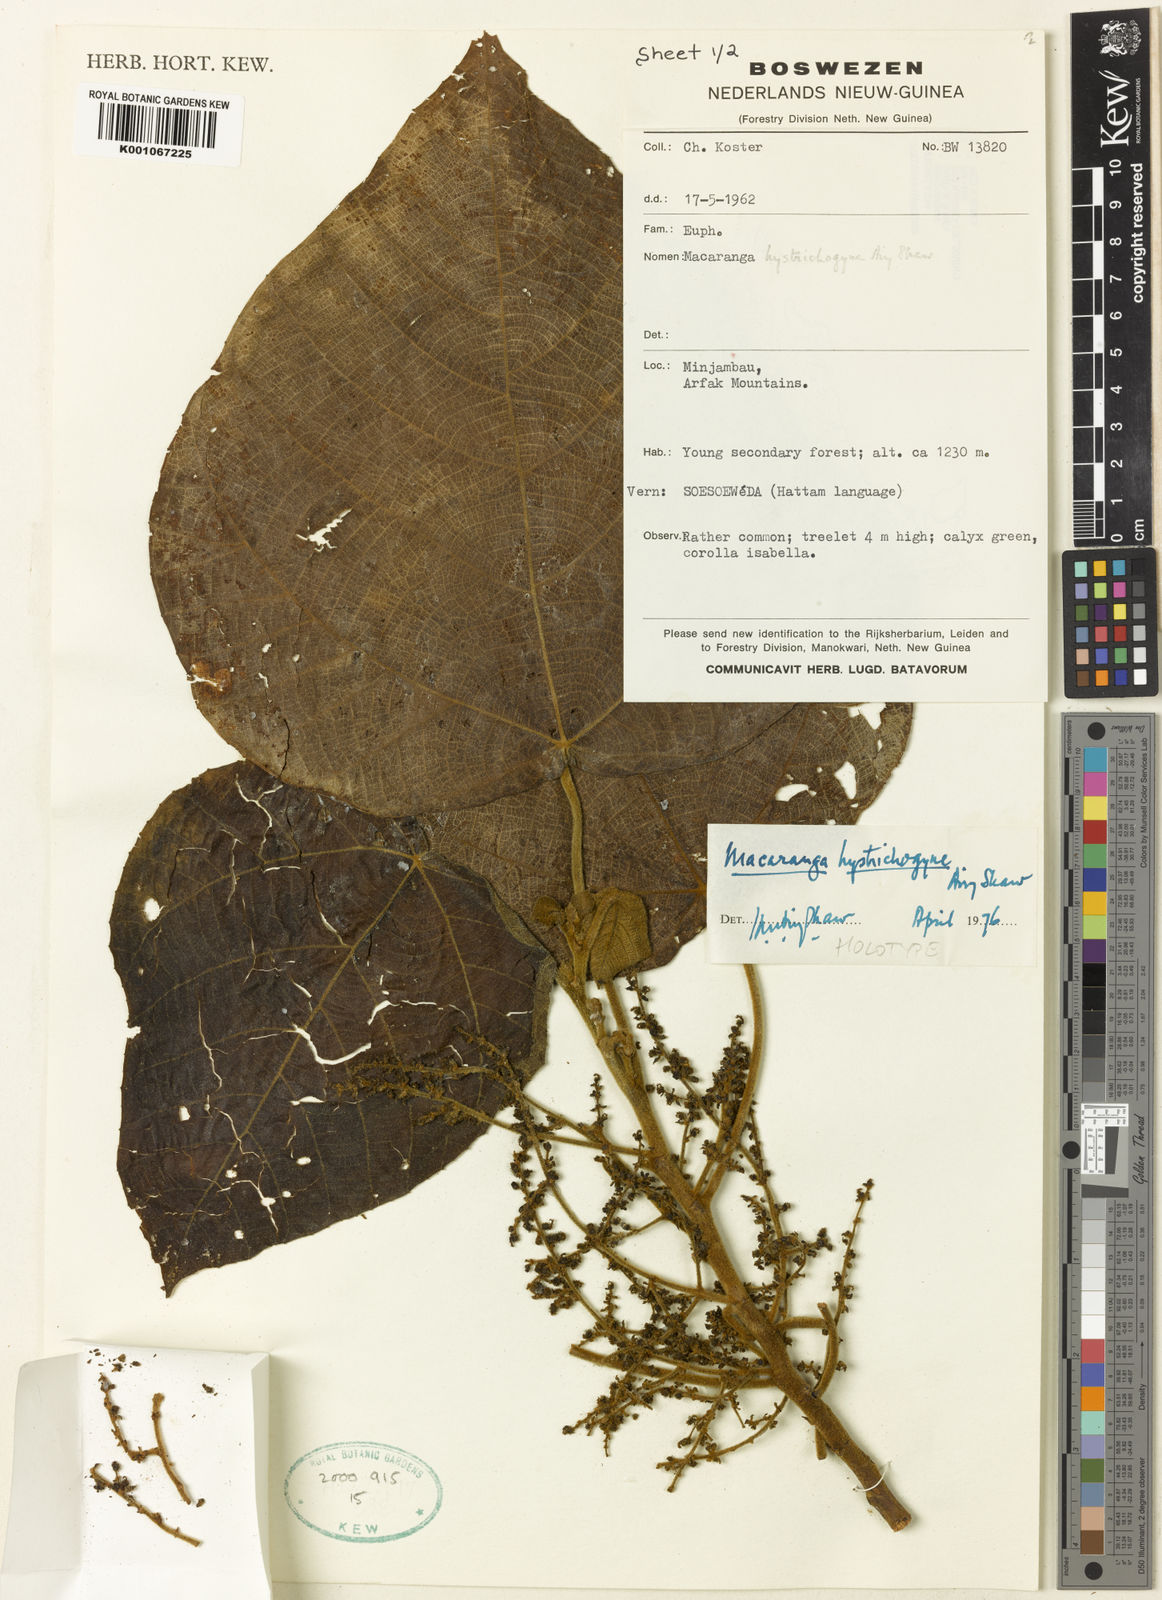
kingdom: Plantae
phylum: Tracheophyta
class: Magnoliopsida
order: Malpighiales
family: Euphorbiaceae
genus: Macaranga
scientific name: Macaranga hystrichogyne
